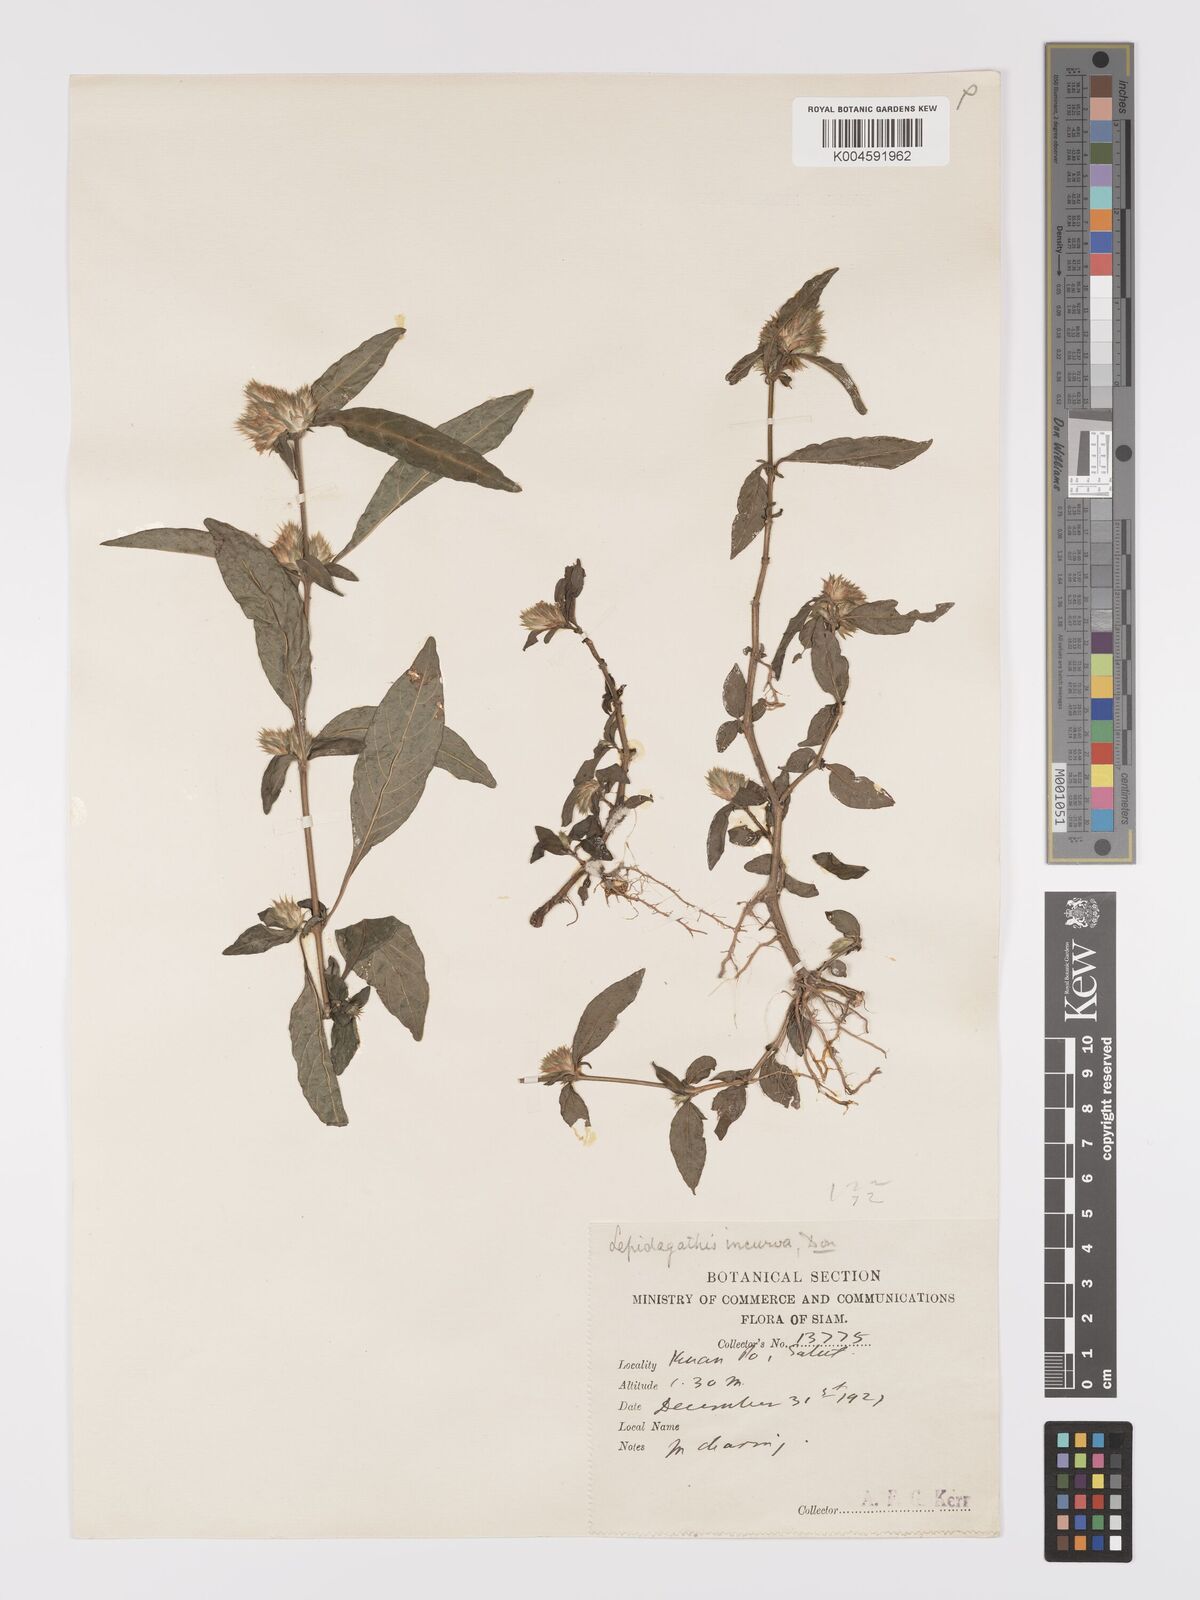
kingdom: Plantae
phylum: Tracheophyta
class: Magnoliopsida
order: Lamiales
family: Acanthaceae
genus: Lepidagathis
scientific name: Lepidagathis incurva
